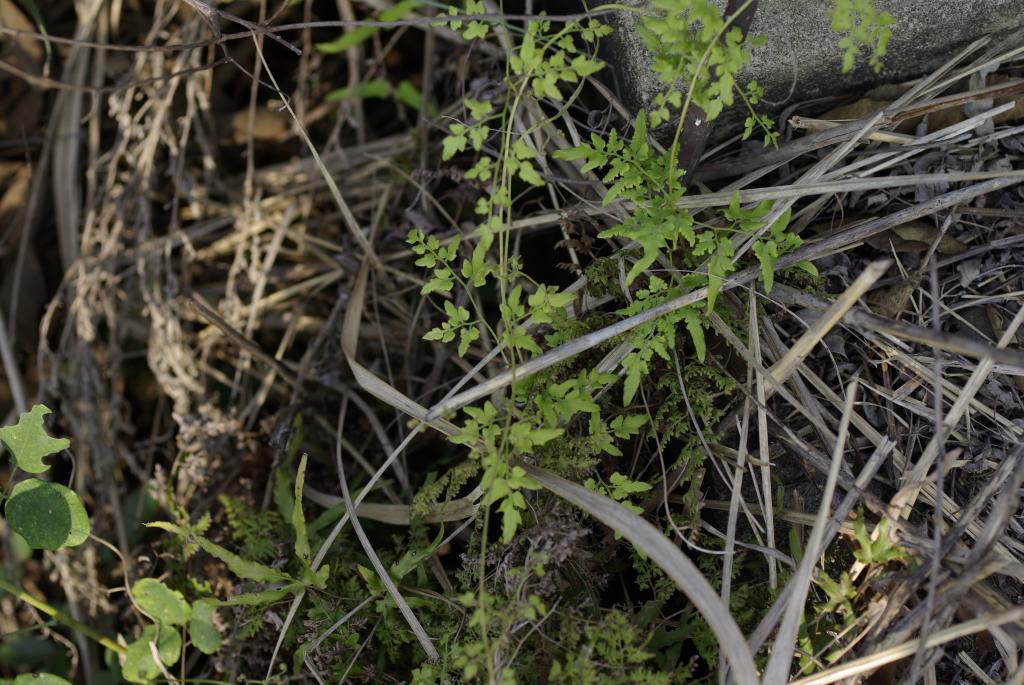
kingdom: Plantae
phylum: Tracheophyta
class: Polypodiopsida
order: Schizaeales
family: Lygodiaceae
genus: Lygodium
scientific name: Lygodium japonicum
